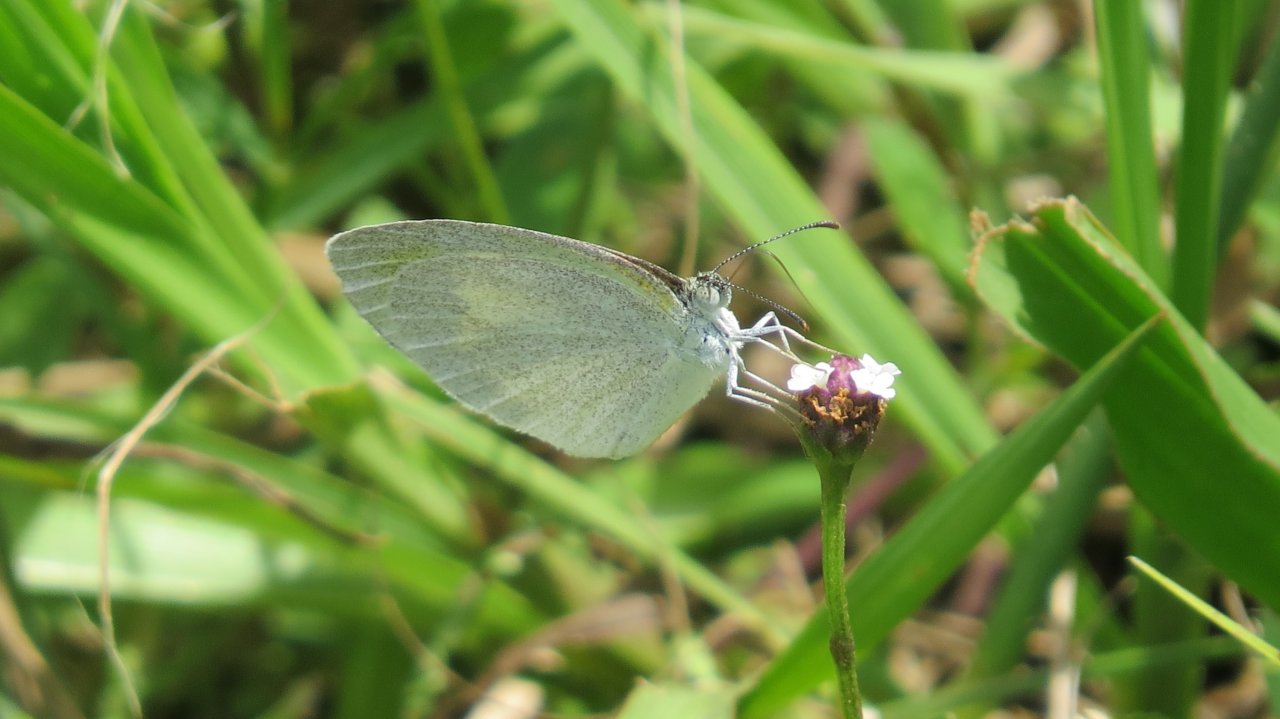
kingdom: Animalia
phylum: Arthropoda
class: Insecta
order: Lepidoptera
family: Pieridae
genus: Eurema
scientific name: Eurema daira
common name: Barred Yellow
